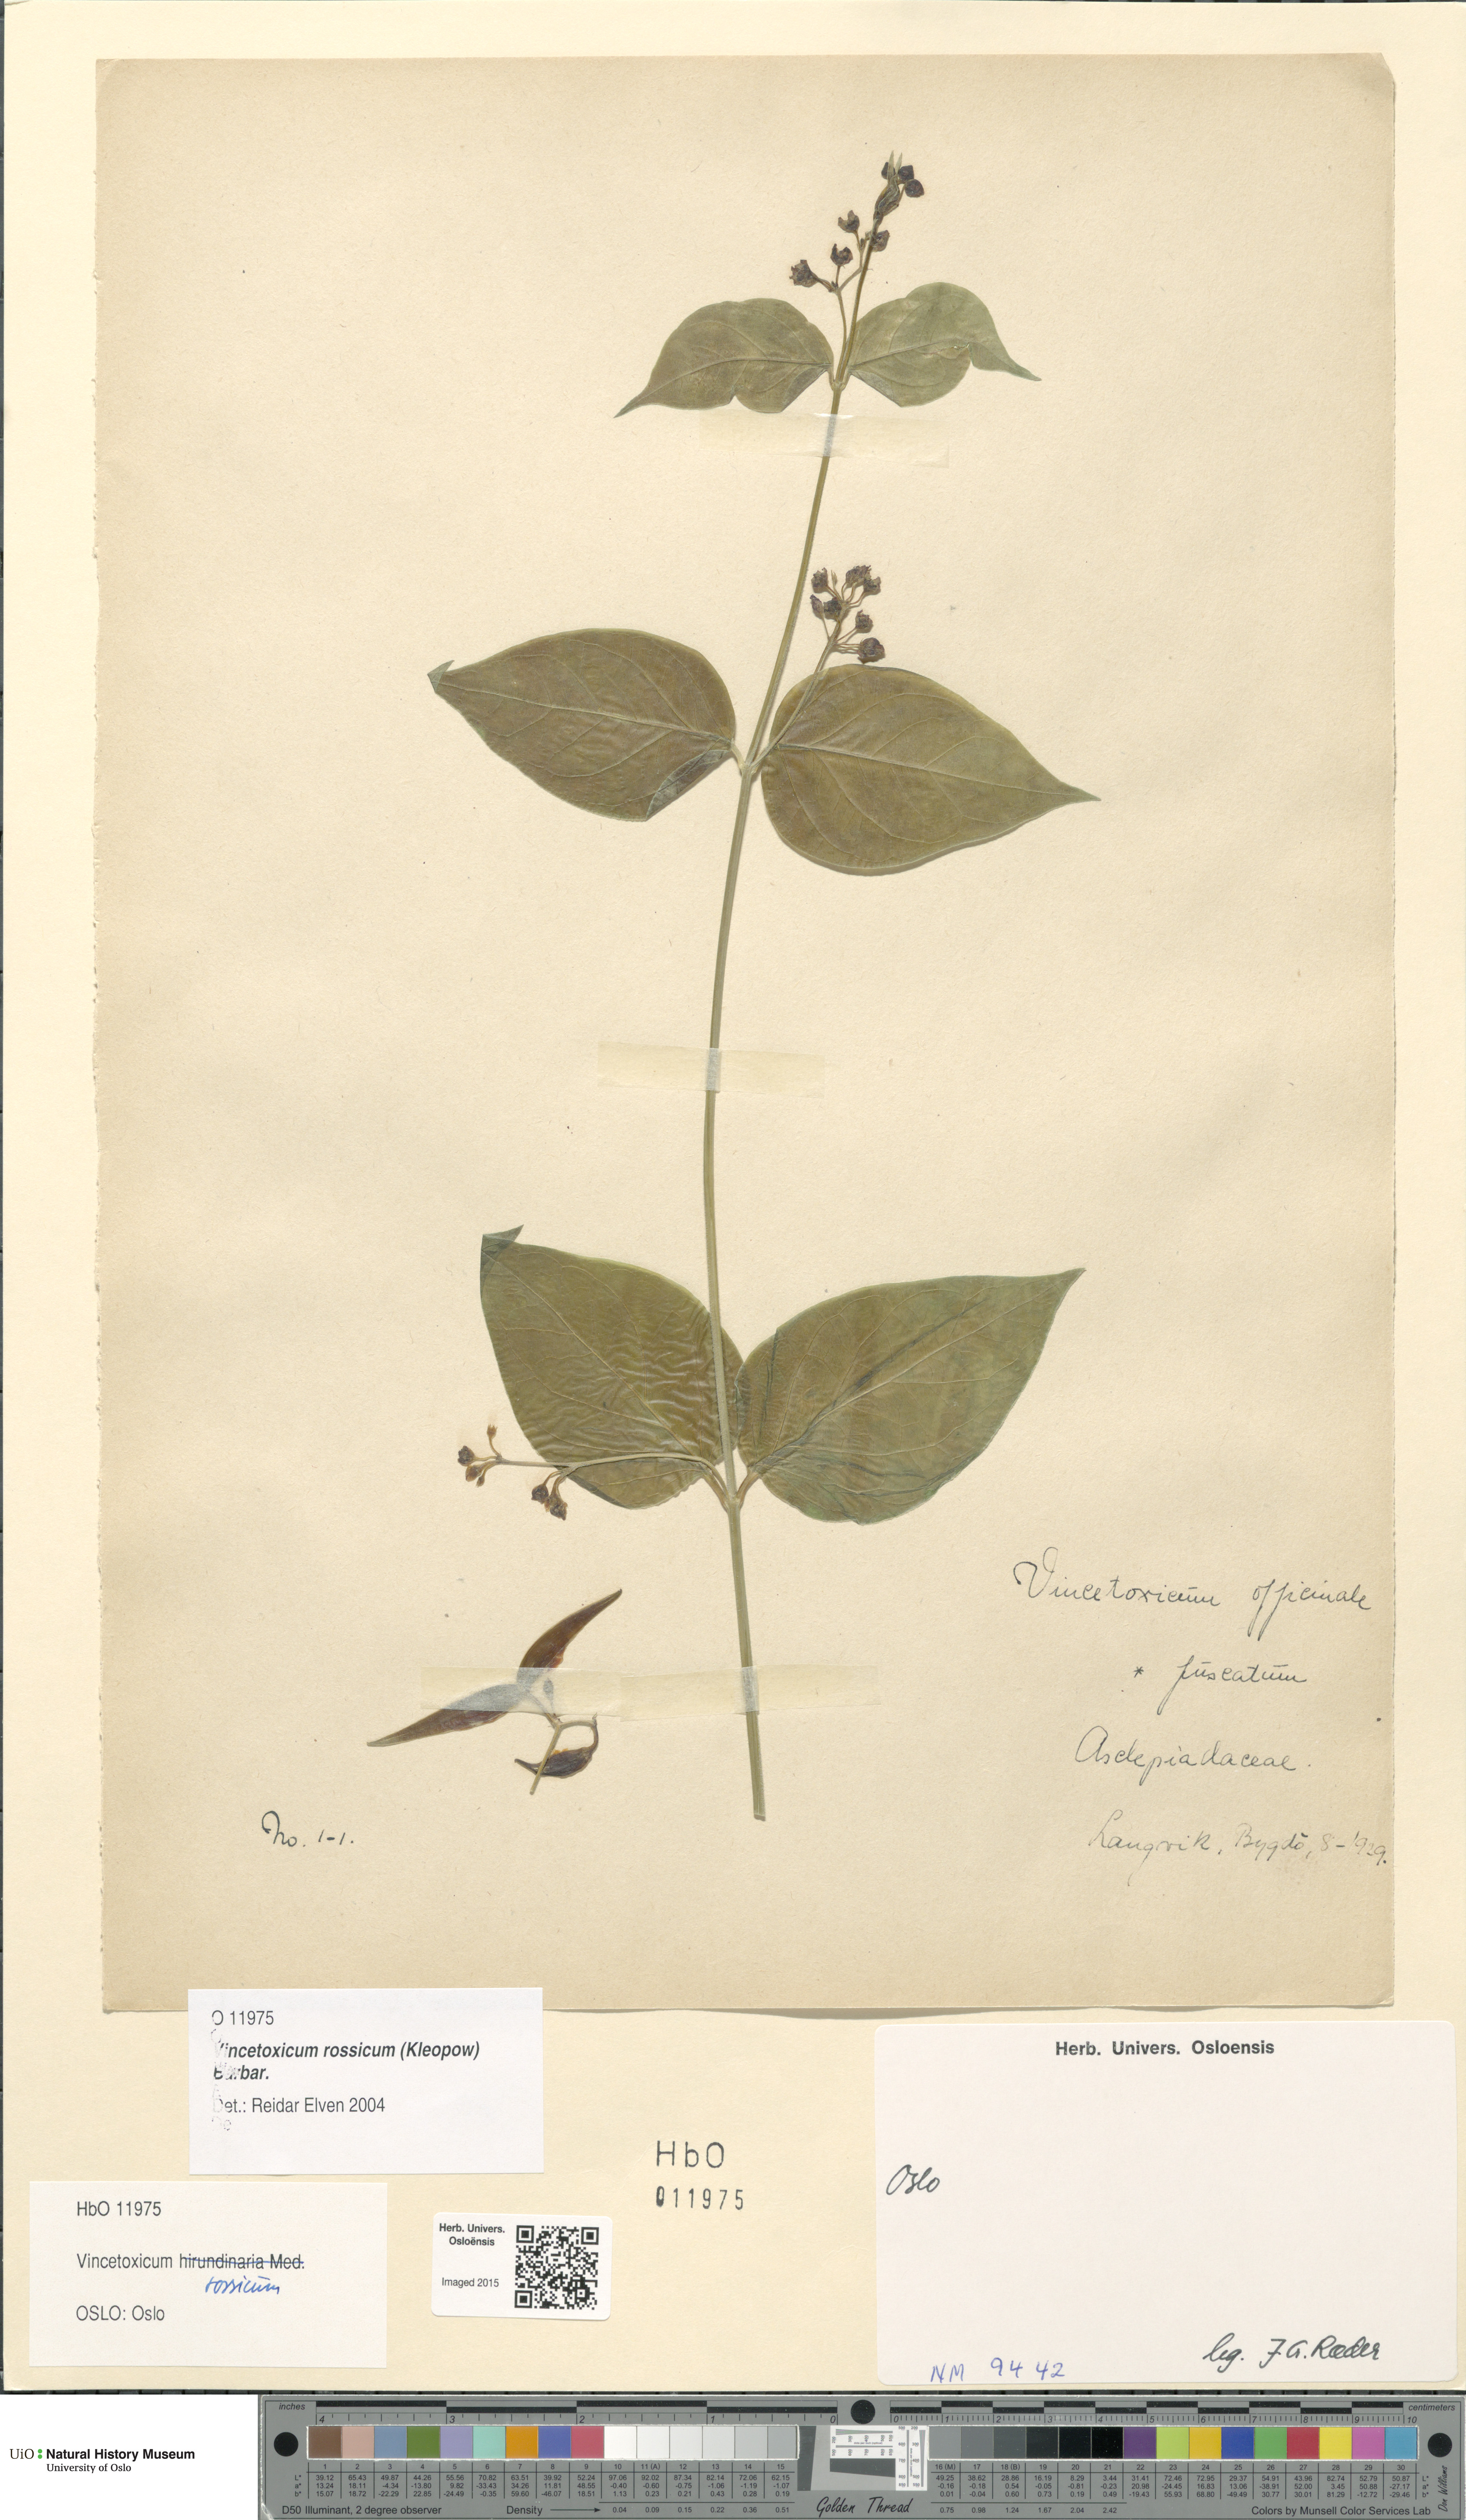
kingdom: Plantae
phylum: Tracheophyta
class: Magnoliopsida
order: Gentianales
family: Apocynaceae
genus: Vincetoxicum
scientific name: Vincetoxicum rossicum
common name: Dog-strangling vine
